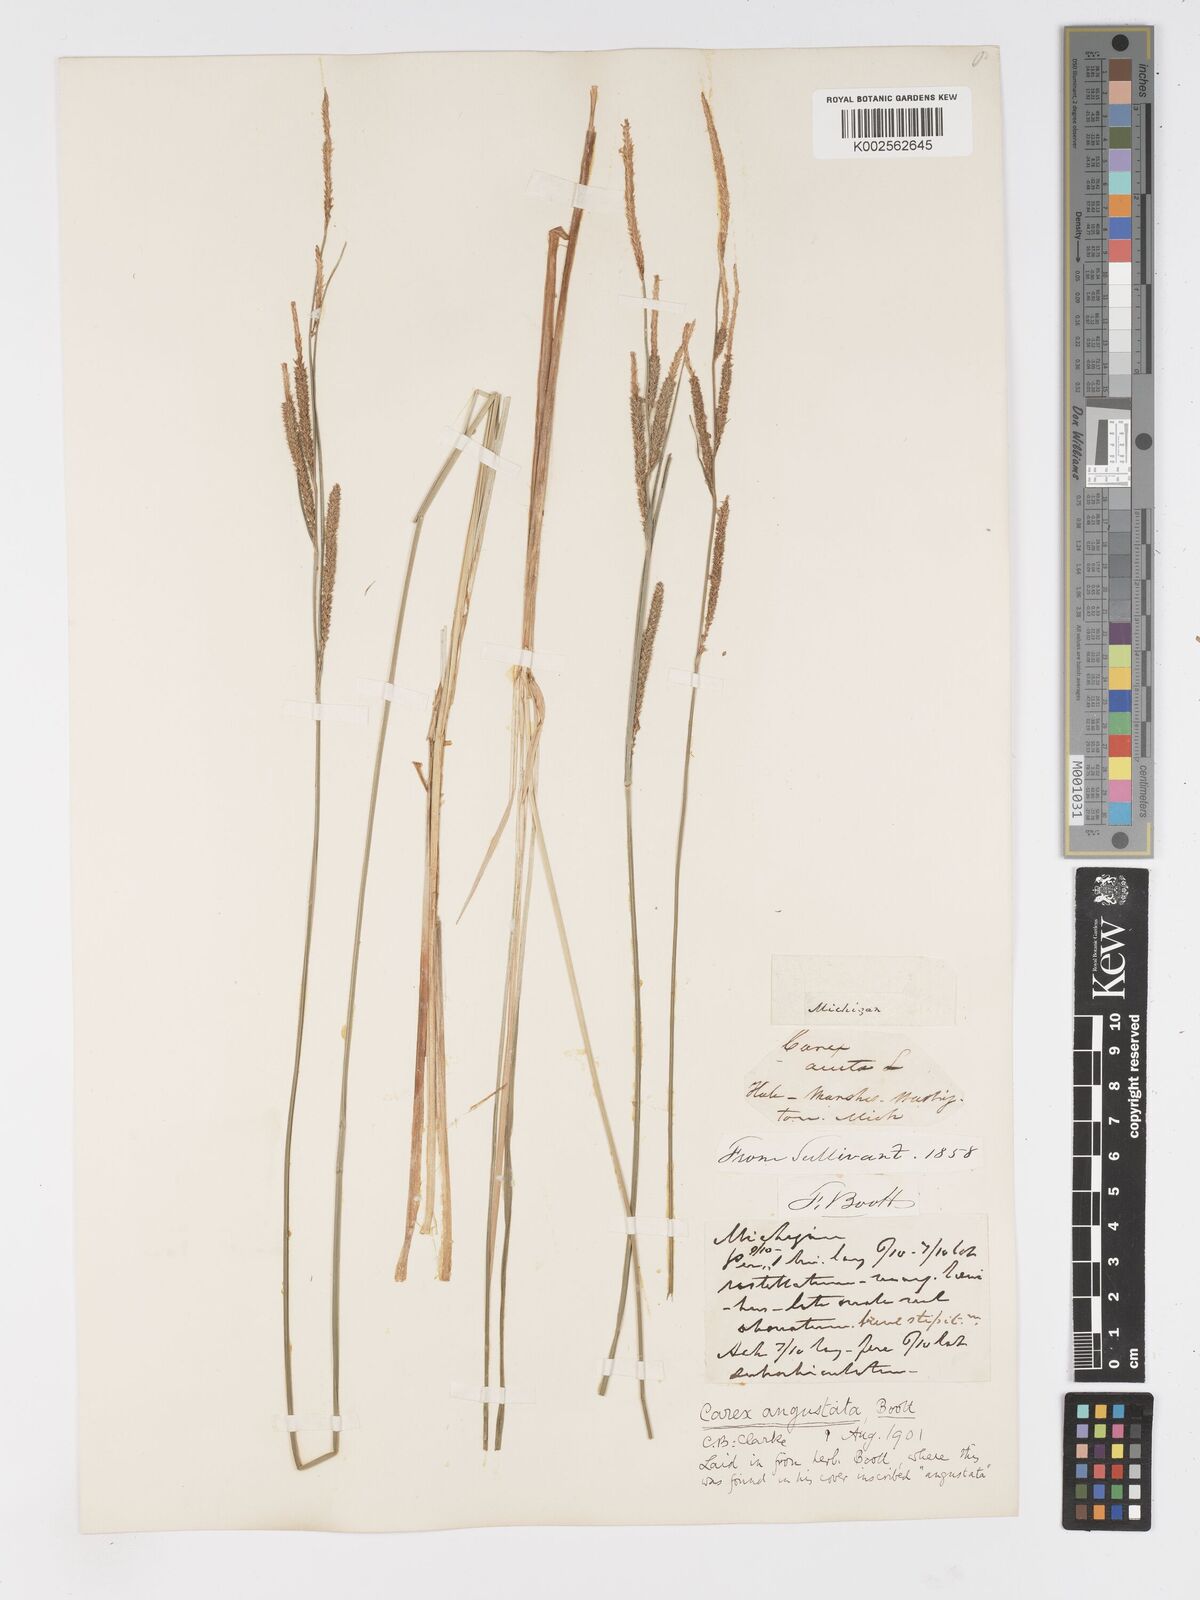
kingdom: Plantae
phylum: Tracheophyta
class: Liliopsida
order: Poales
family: Cyperaceae
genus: Carex
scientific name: Carex stricta
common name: Hummock sedge
